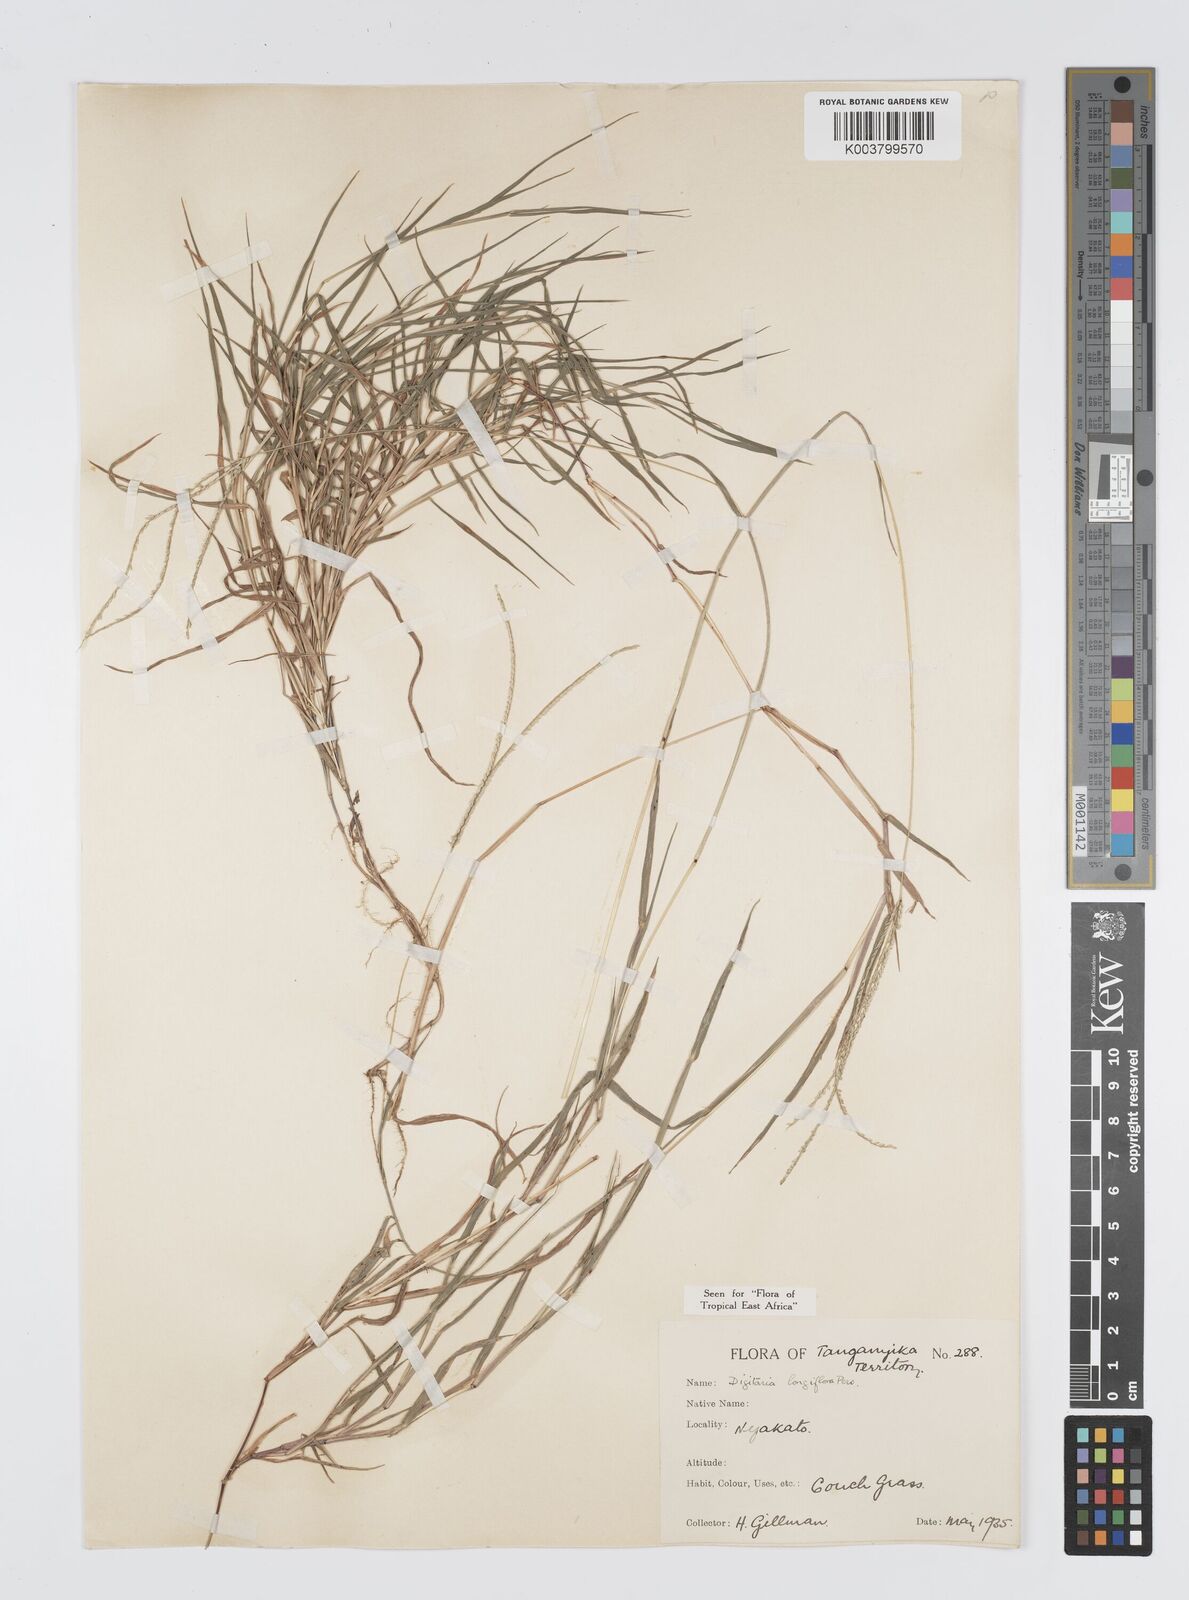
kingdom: Plantae
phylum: Tracheophyta
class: Liliopsida
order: Poales
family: Poaceae
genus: Digitaria
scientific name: Digitaria longiflora
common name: Wire crabgrass
